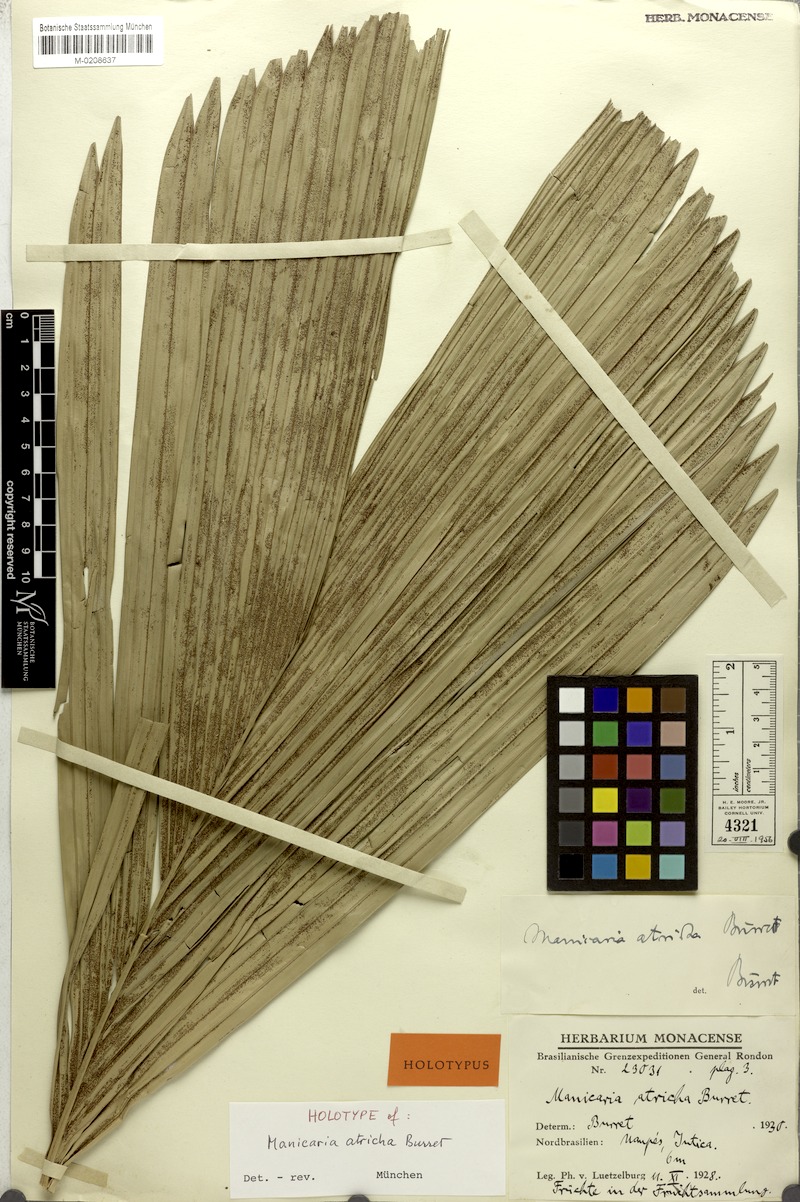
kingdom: Plantae
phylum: Tracheophyta
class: Liliopsida
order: Arecales
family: Arecaceae
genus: Manicaria
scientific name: Manicaria saccifera
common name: Sea coconut
